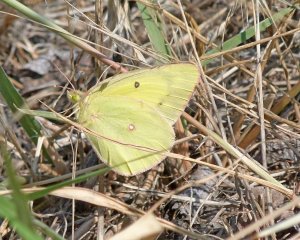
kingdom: Animalia
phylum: Arthropoda
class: Insecta
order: Lepidoptera
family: Pieridae
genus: Colias
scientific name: Colias philodice
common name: Clouded Sulphur
